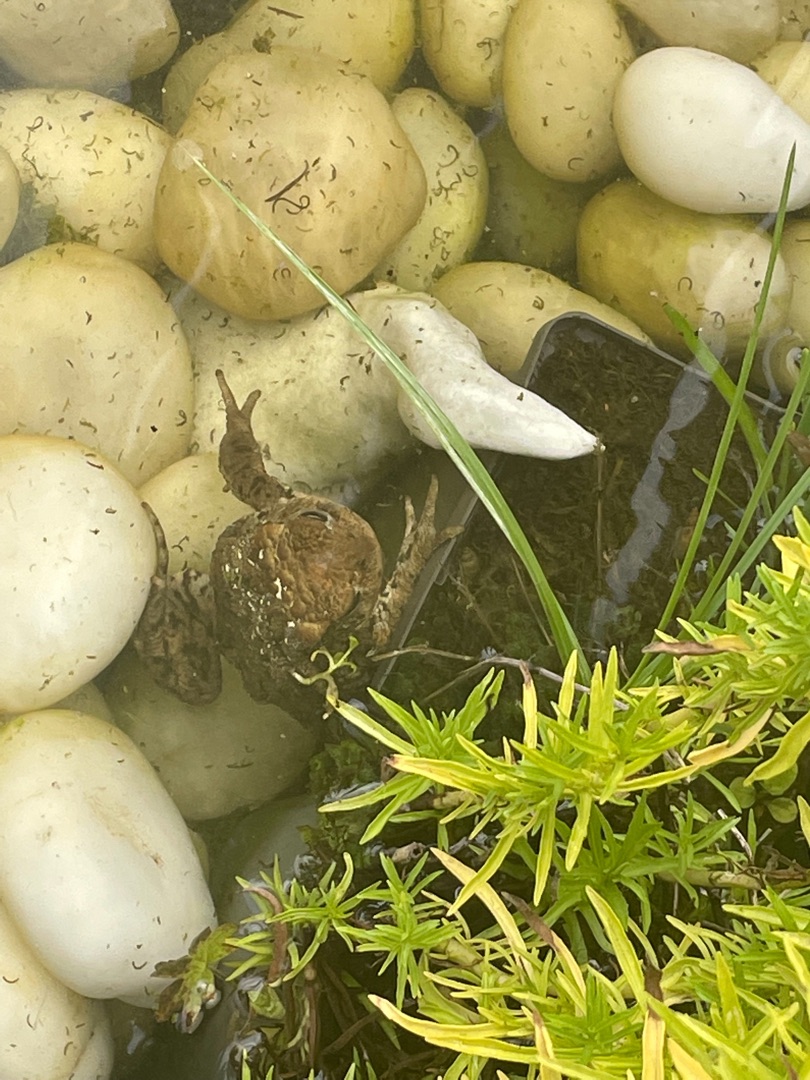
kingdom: Animalia
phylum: Chordata
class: Amphibia
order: Anura
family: Bufonidae
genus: Bufo
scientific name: Bufo bufo
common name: Skrubtudse
